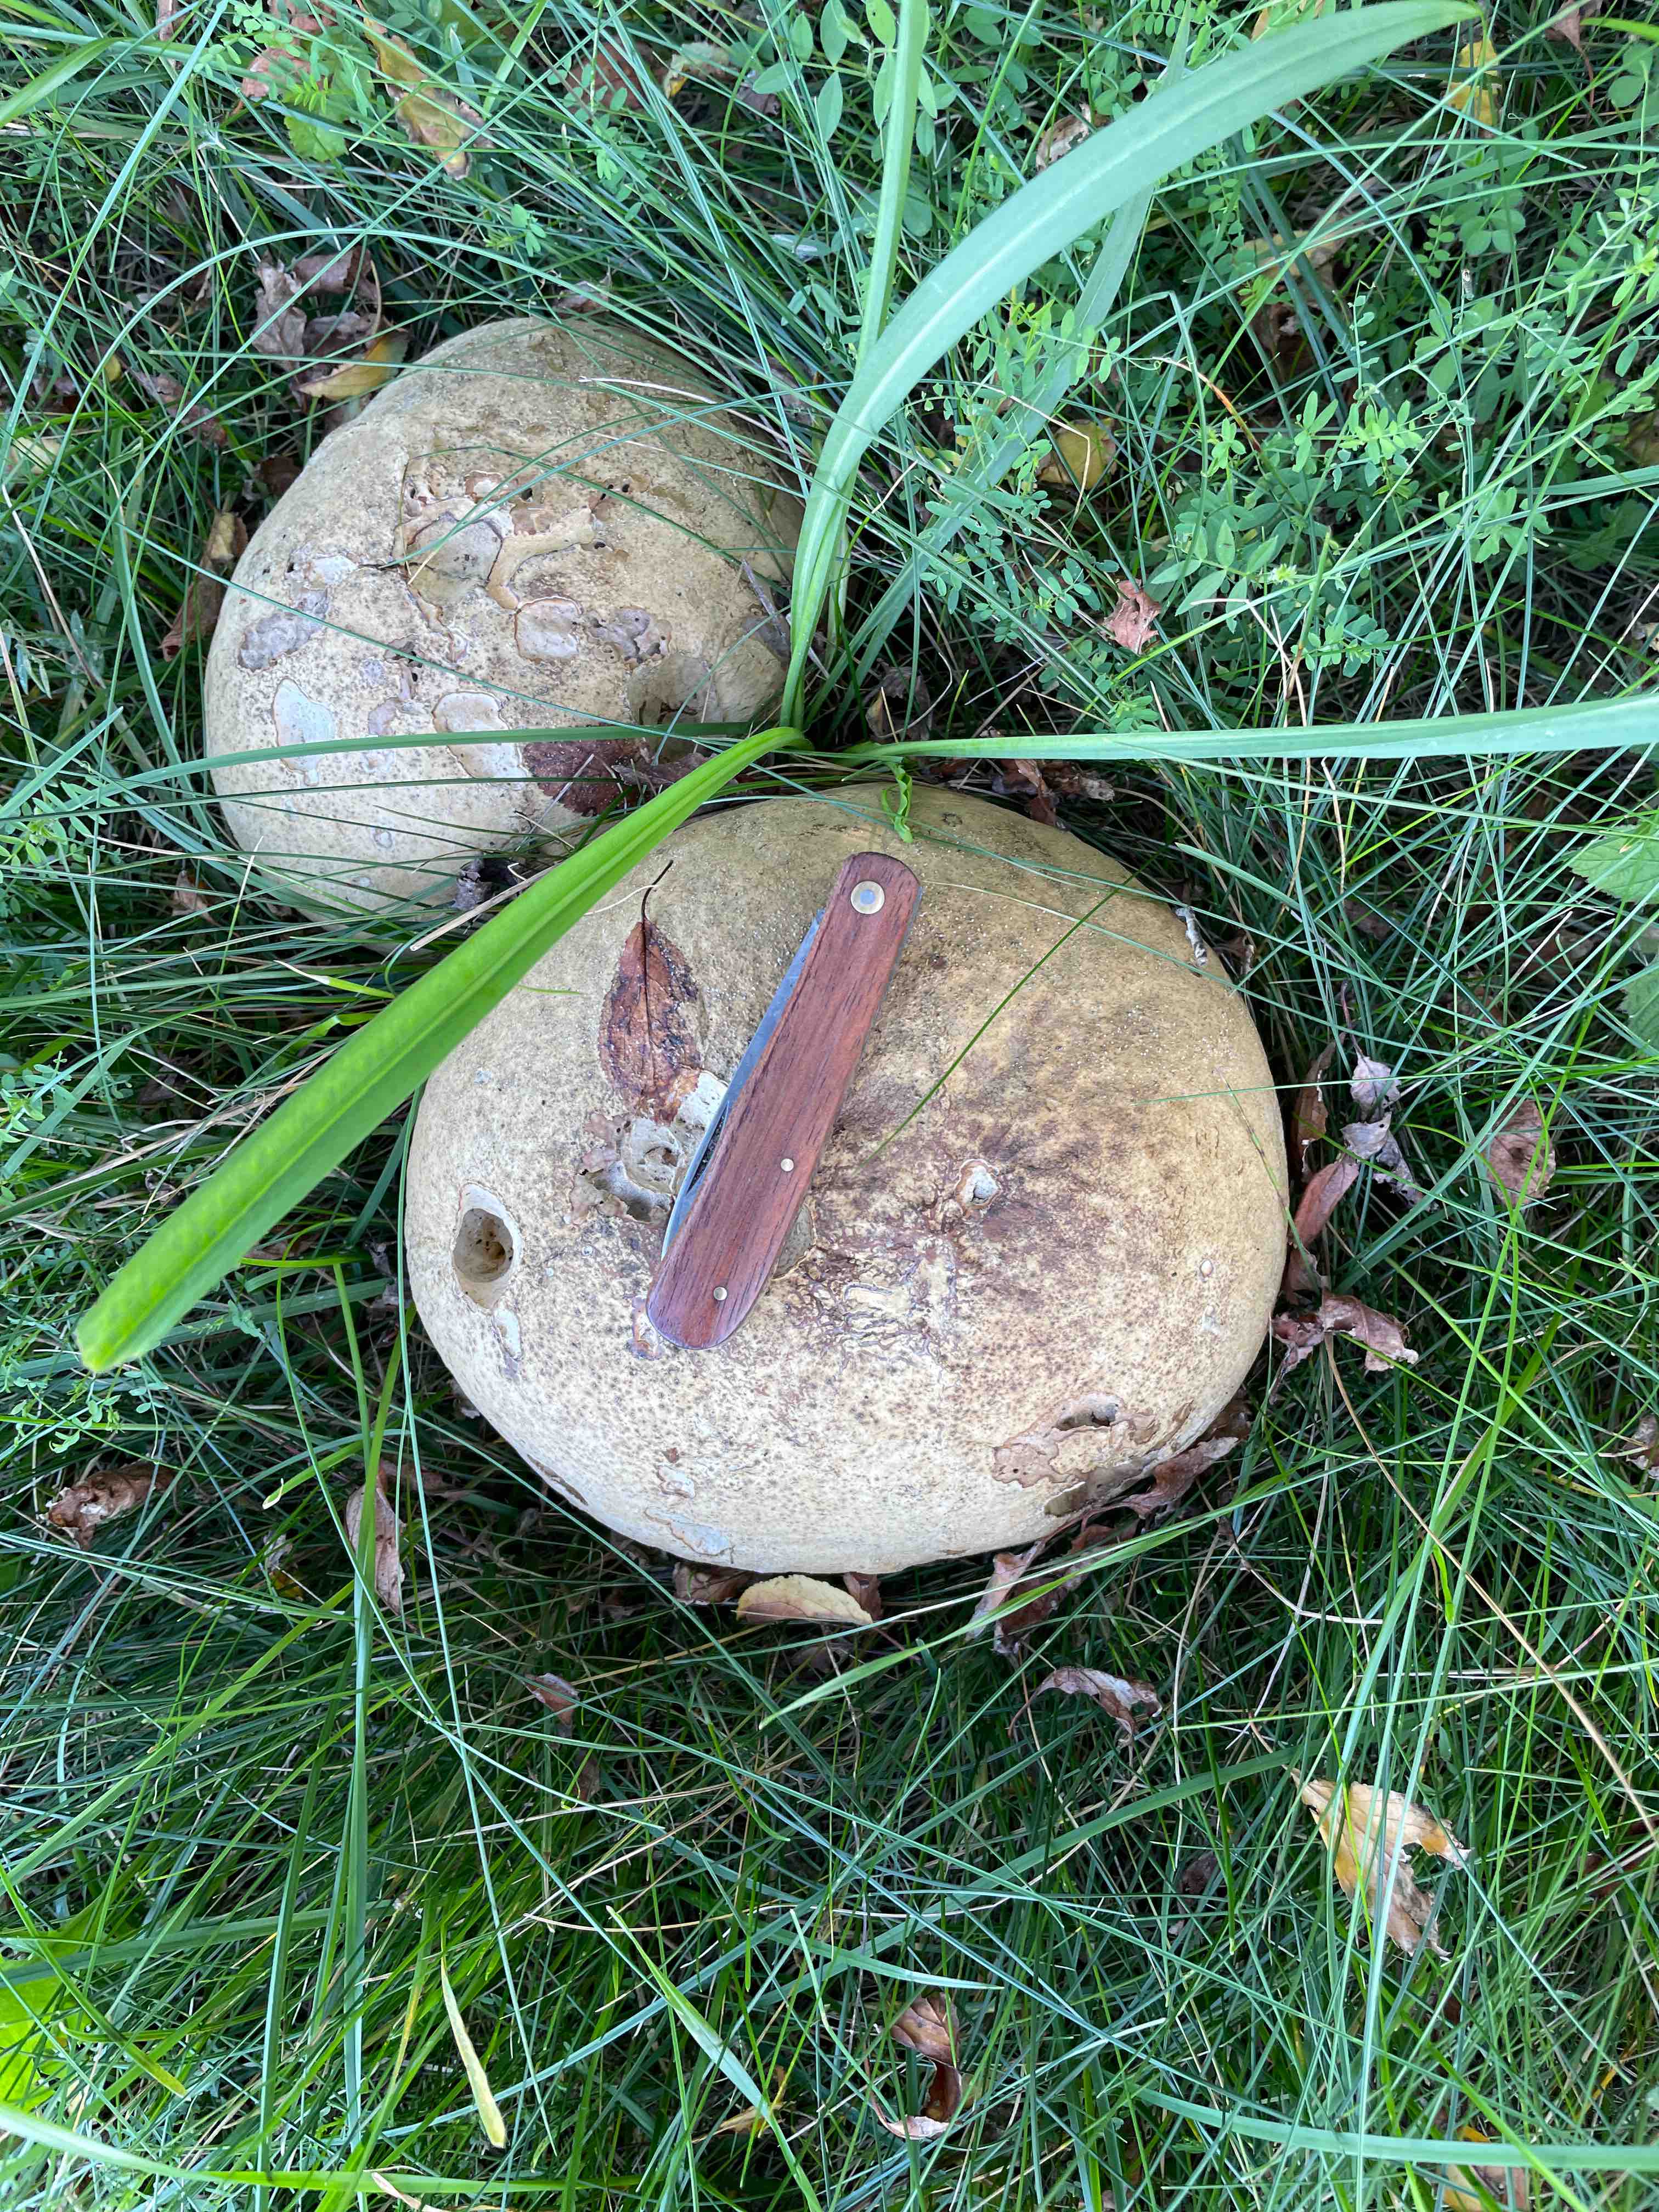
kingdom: Fungi
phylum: Basidiomycota
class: Agaricomycetes
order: Agaricales
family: Lycoperdaceae
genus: Calvatia
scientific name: Calvatia gigantea
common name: kæmpestøvbold
